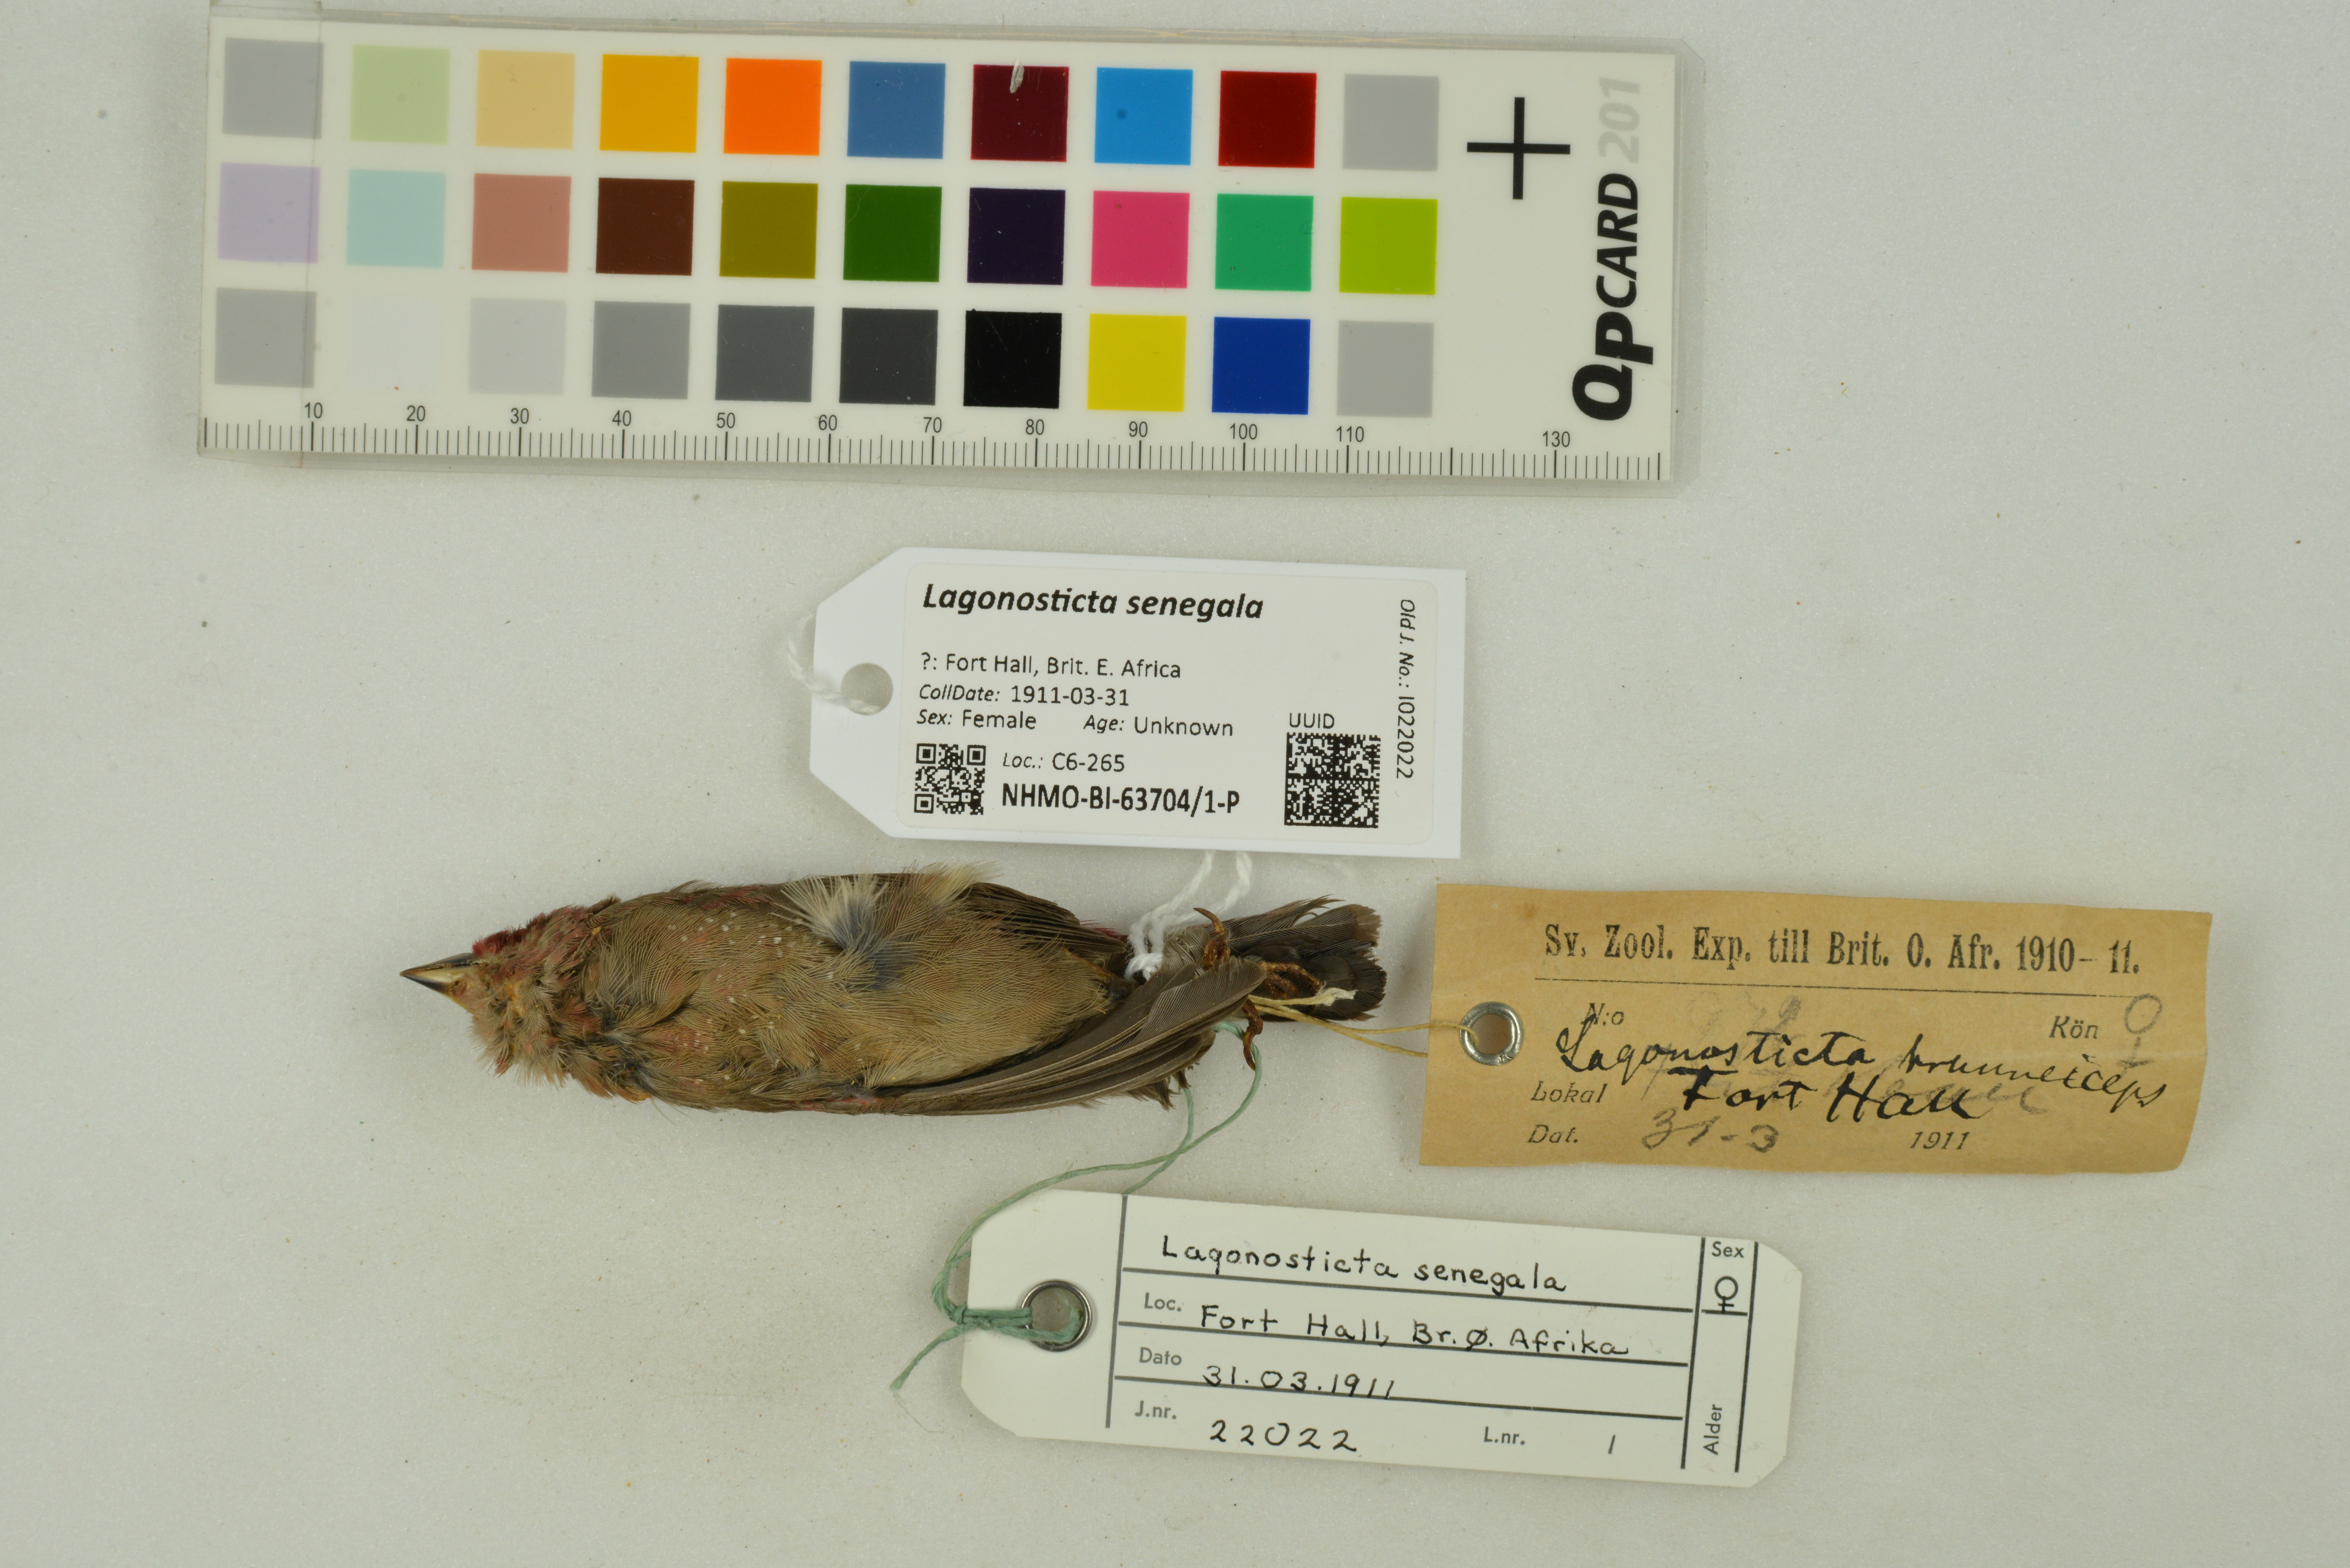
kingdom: Animalia
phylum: Chordata
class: Aves
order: Passeriformes
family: Estrildidae
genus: Lagonosticta
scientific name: Lagonosticta senegala
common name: Red-billed firefinch
